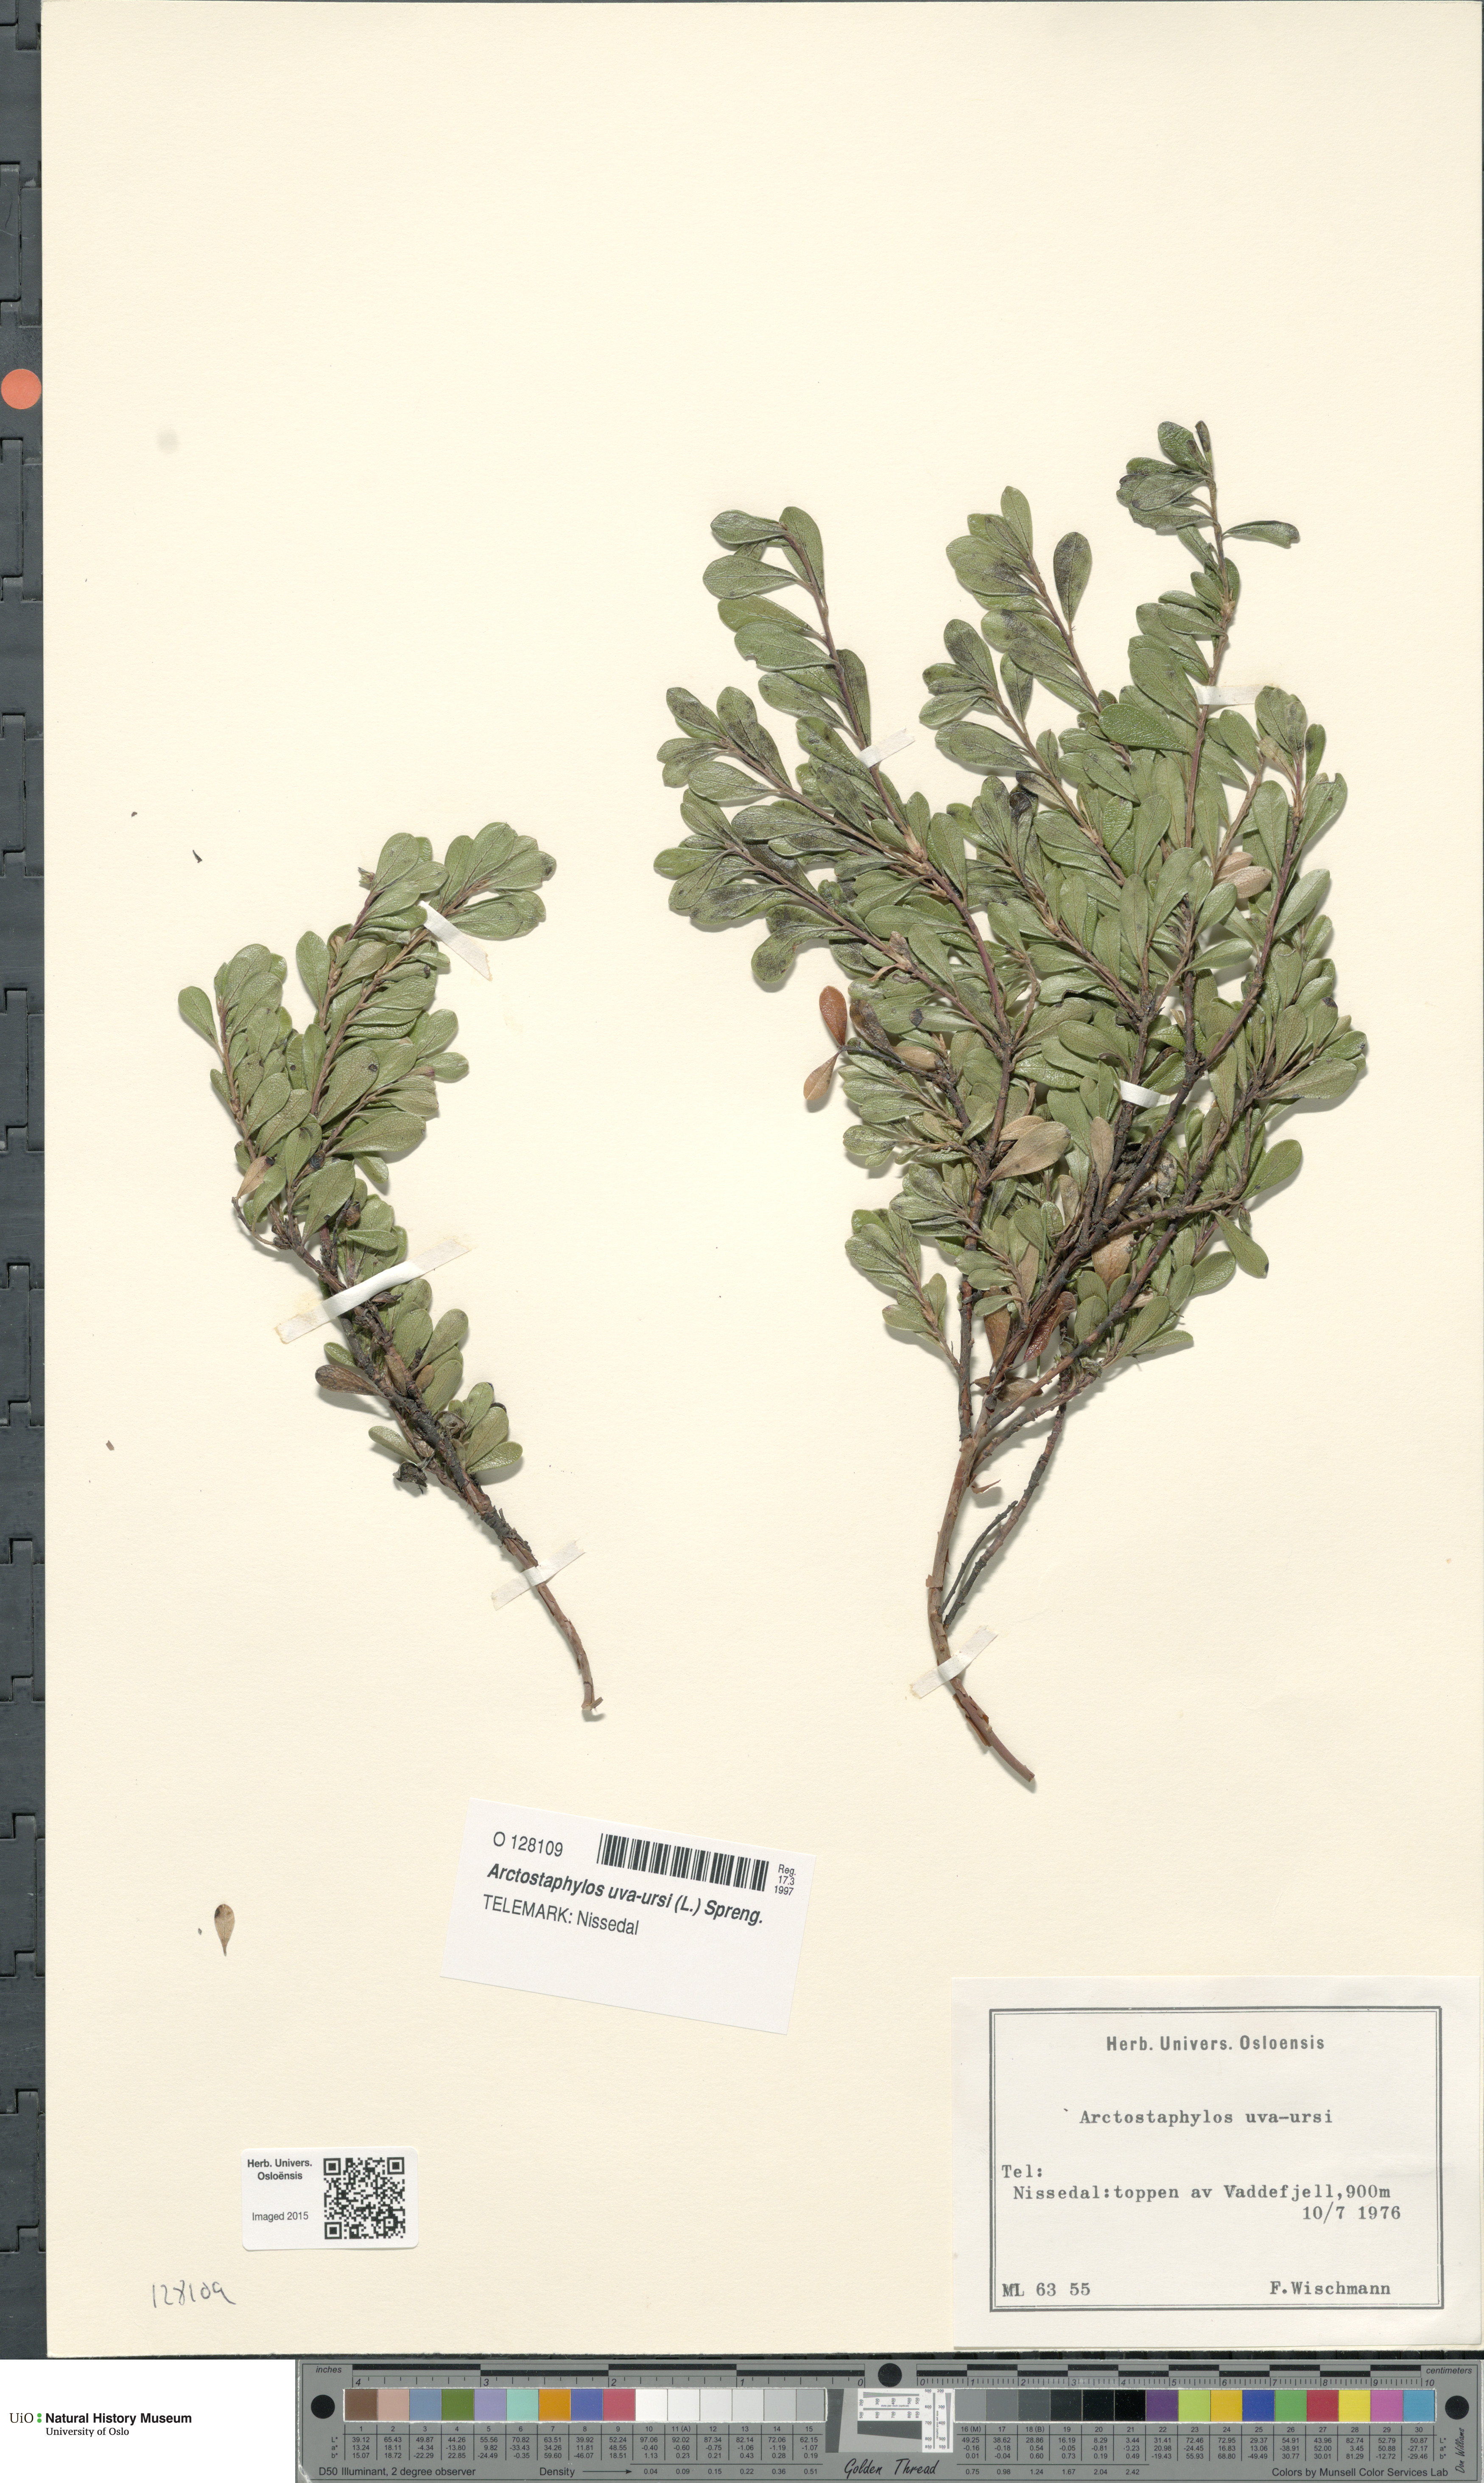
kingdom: Plantae
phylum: Tracheophyta
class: Magnoliopsida
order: Ericales
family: Ericaceae
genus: Arctostaphylos
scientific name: Arctostaphylos uva-ursi
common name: Bearberry
